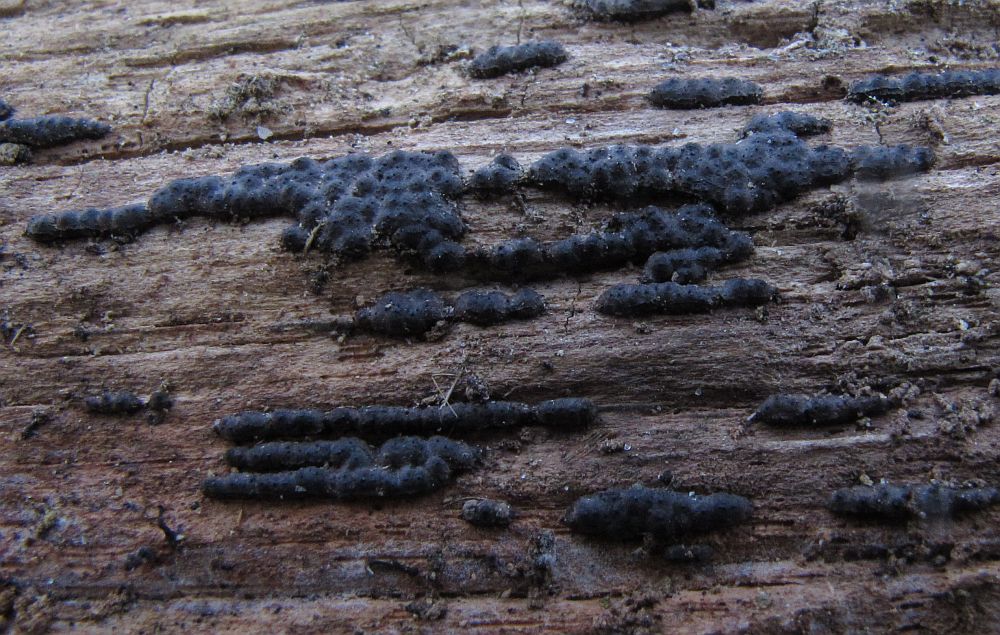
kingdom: Fungi
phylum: Ascomycota
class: Sordariomycetes
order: Xylariales
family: Xylariaceae
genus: Nemania
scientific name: Nemania serpens
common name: almindelig kuldyne
